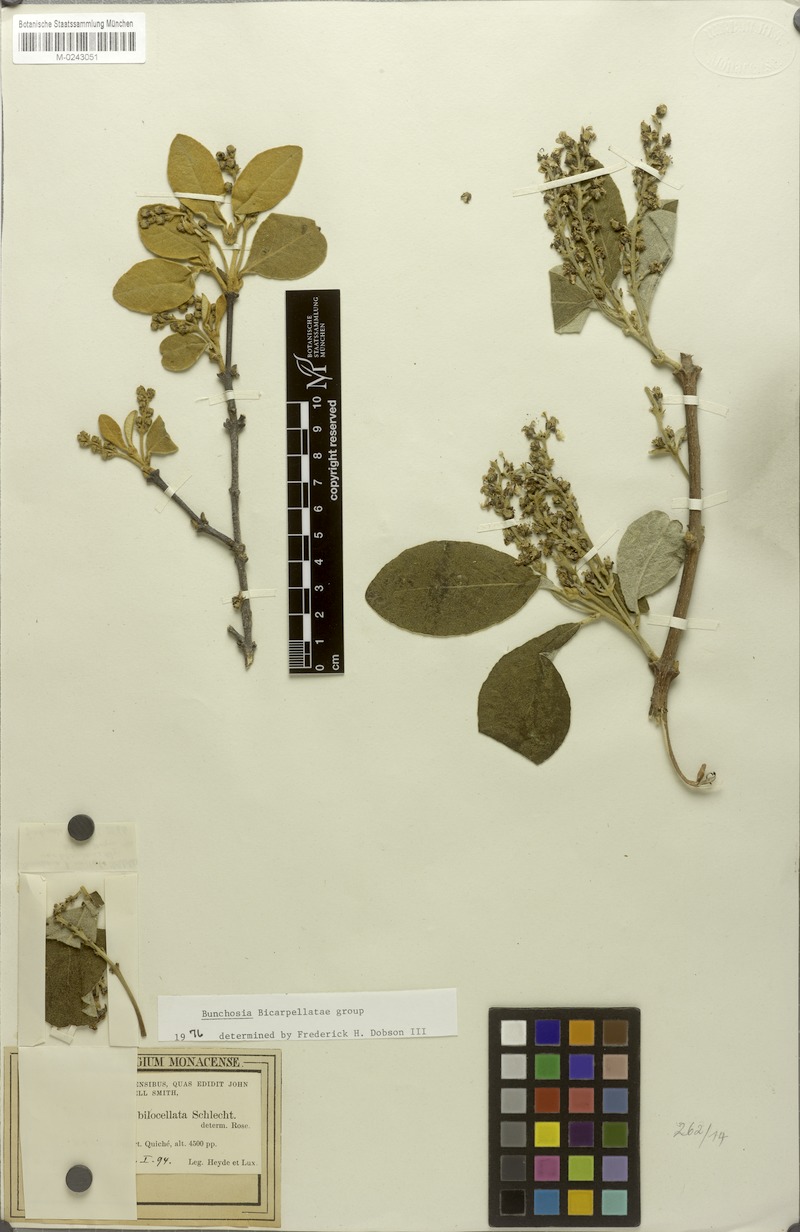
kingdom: Plantae
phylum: Tracheophyta
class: Magnoliopsida
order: Malpighiales
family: Malpighiaceae
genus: Bunchosia
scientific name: Bunchosia biocellata
